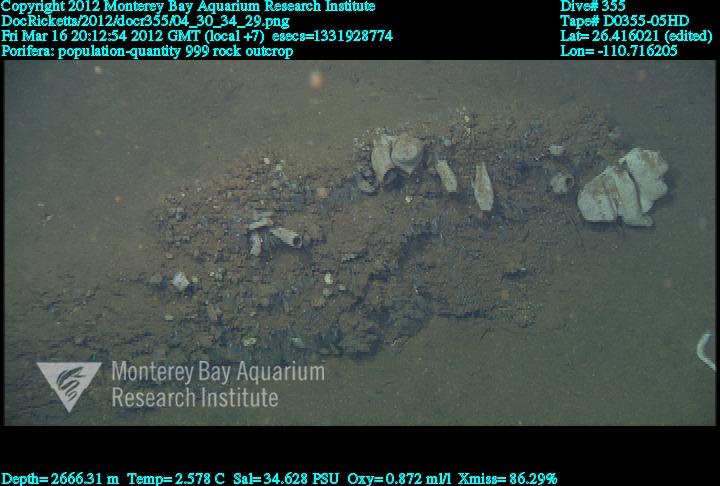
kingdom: Animalia
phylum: Porifera
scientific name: Porifera
